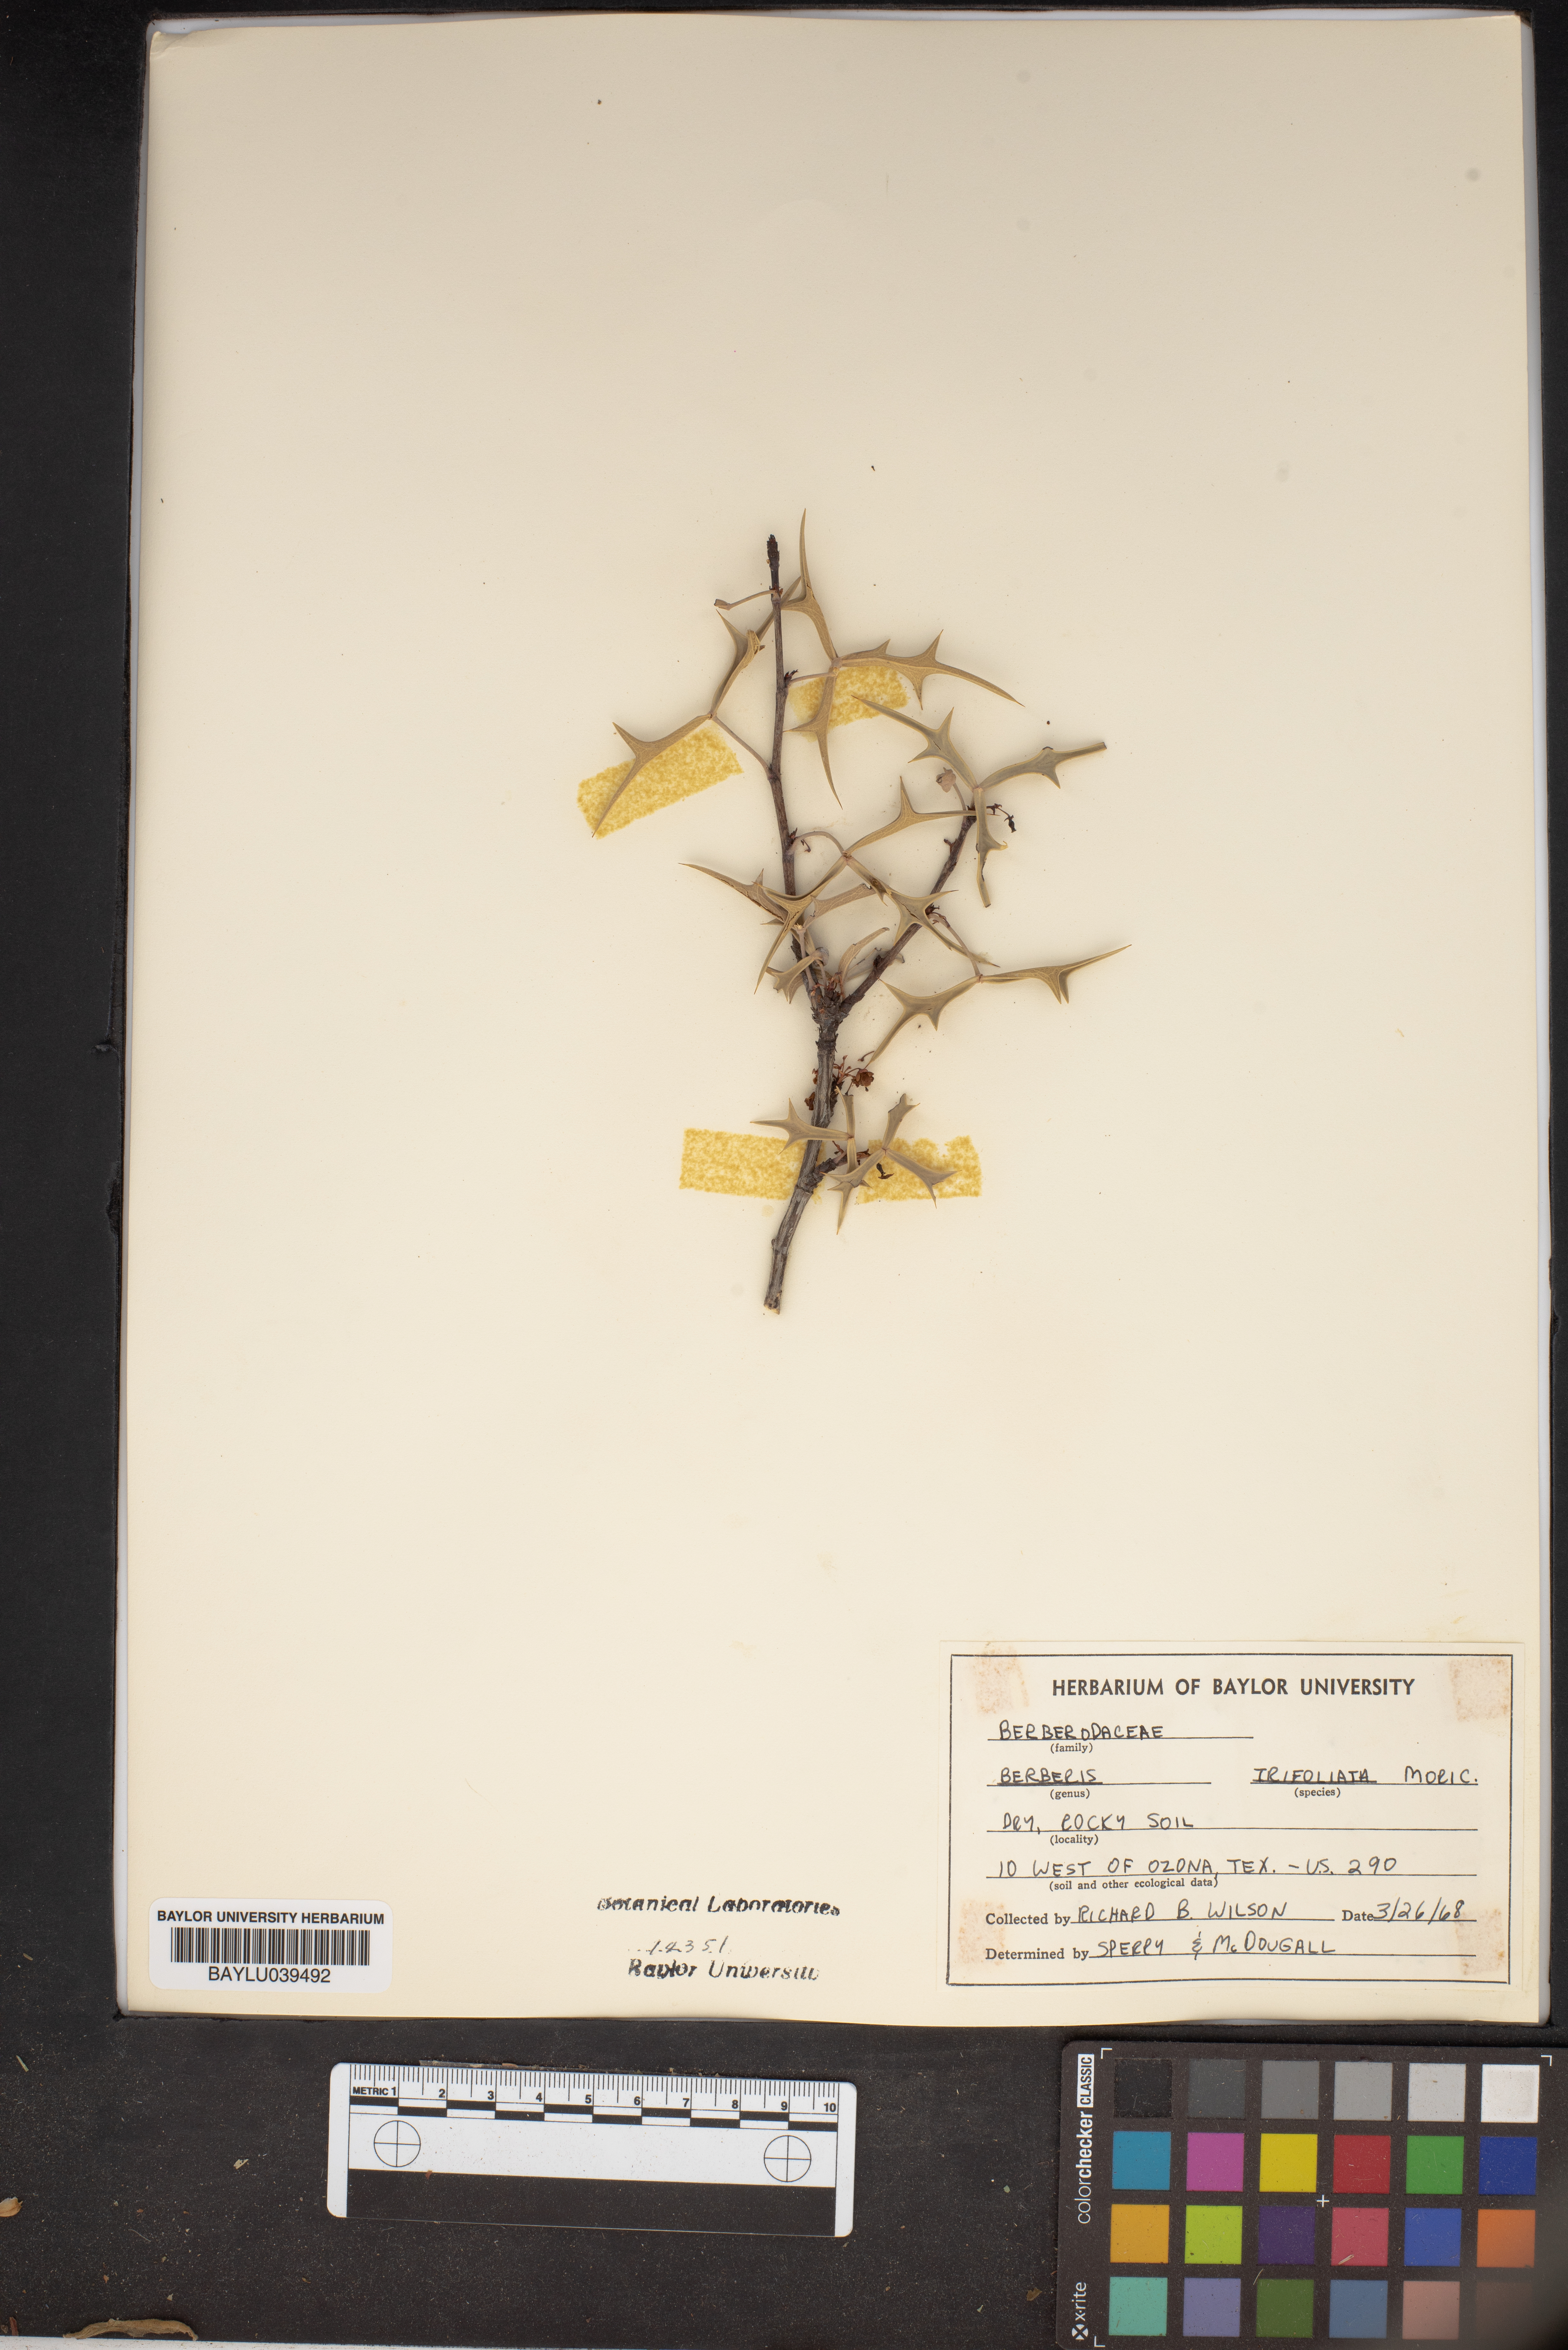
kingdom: Plantae
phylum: Tracheophyta
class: Magnoliopsida
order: Ranunculales
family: Berberidaceae
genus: Alloberberis
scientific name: Alloberberis fremontii
